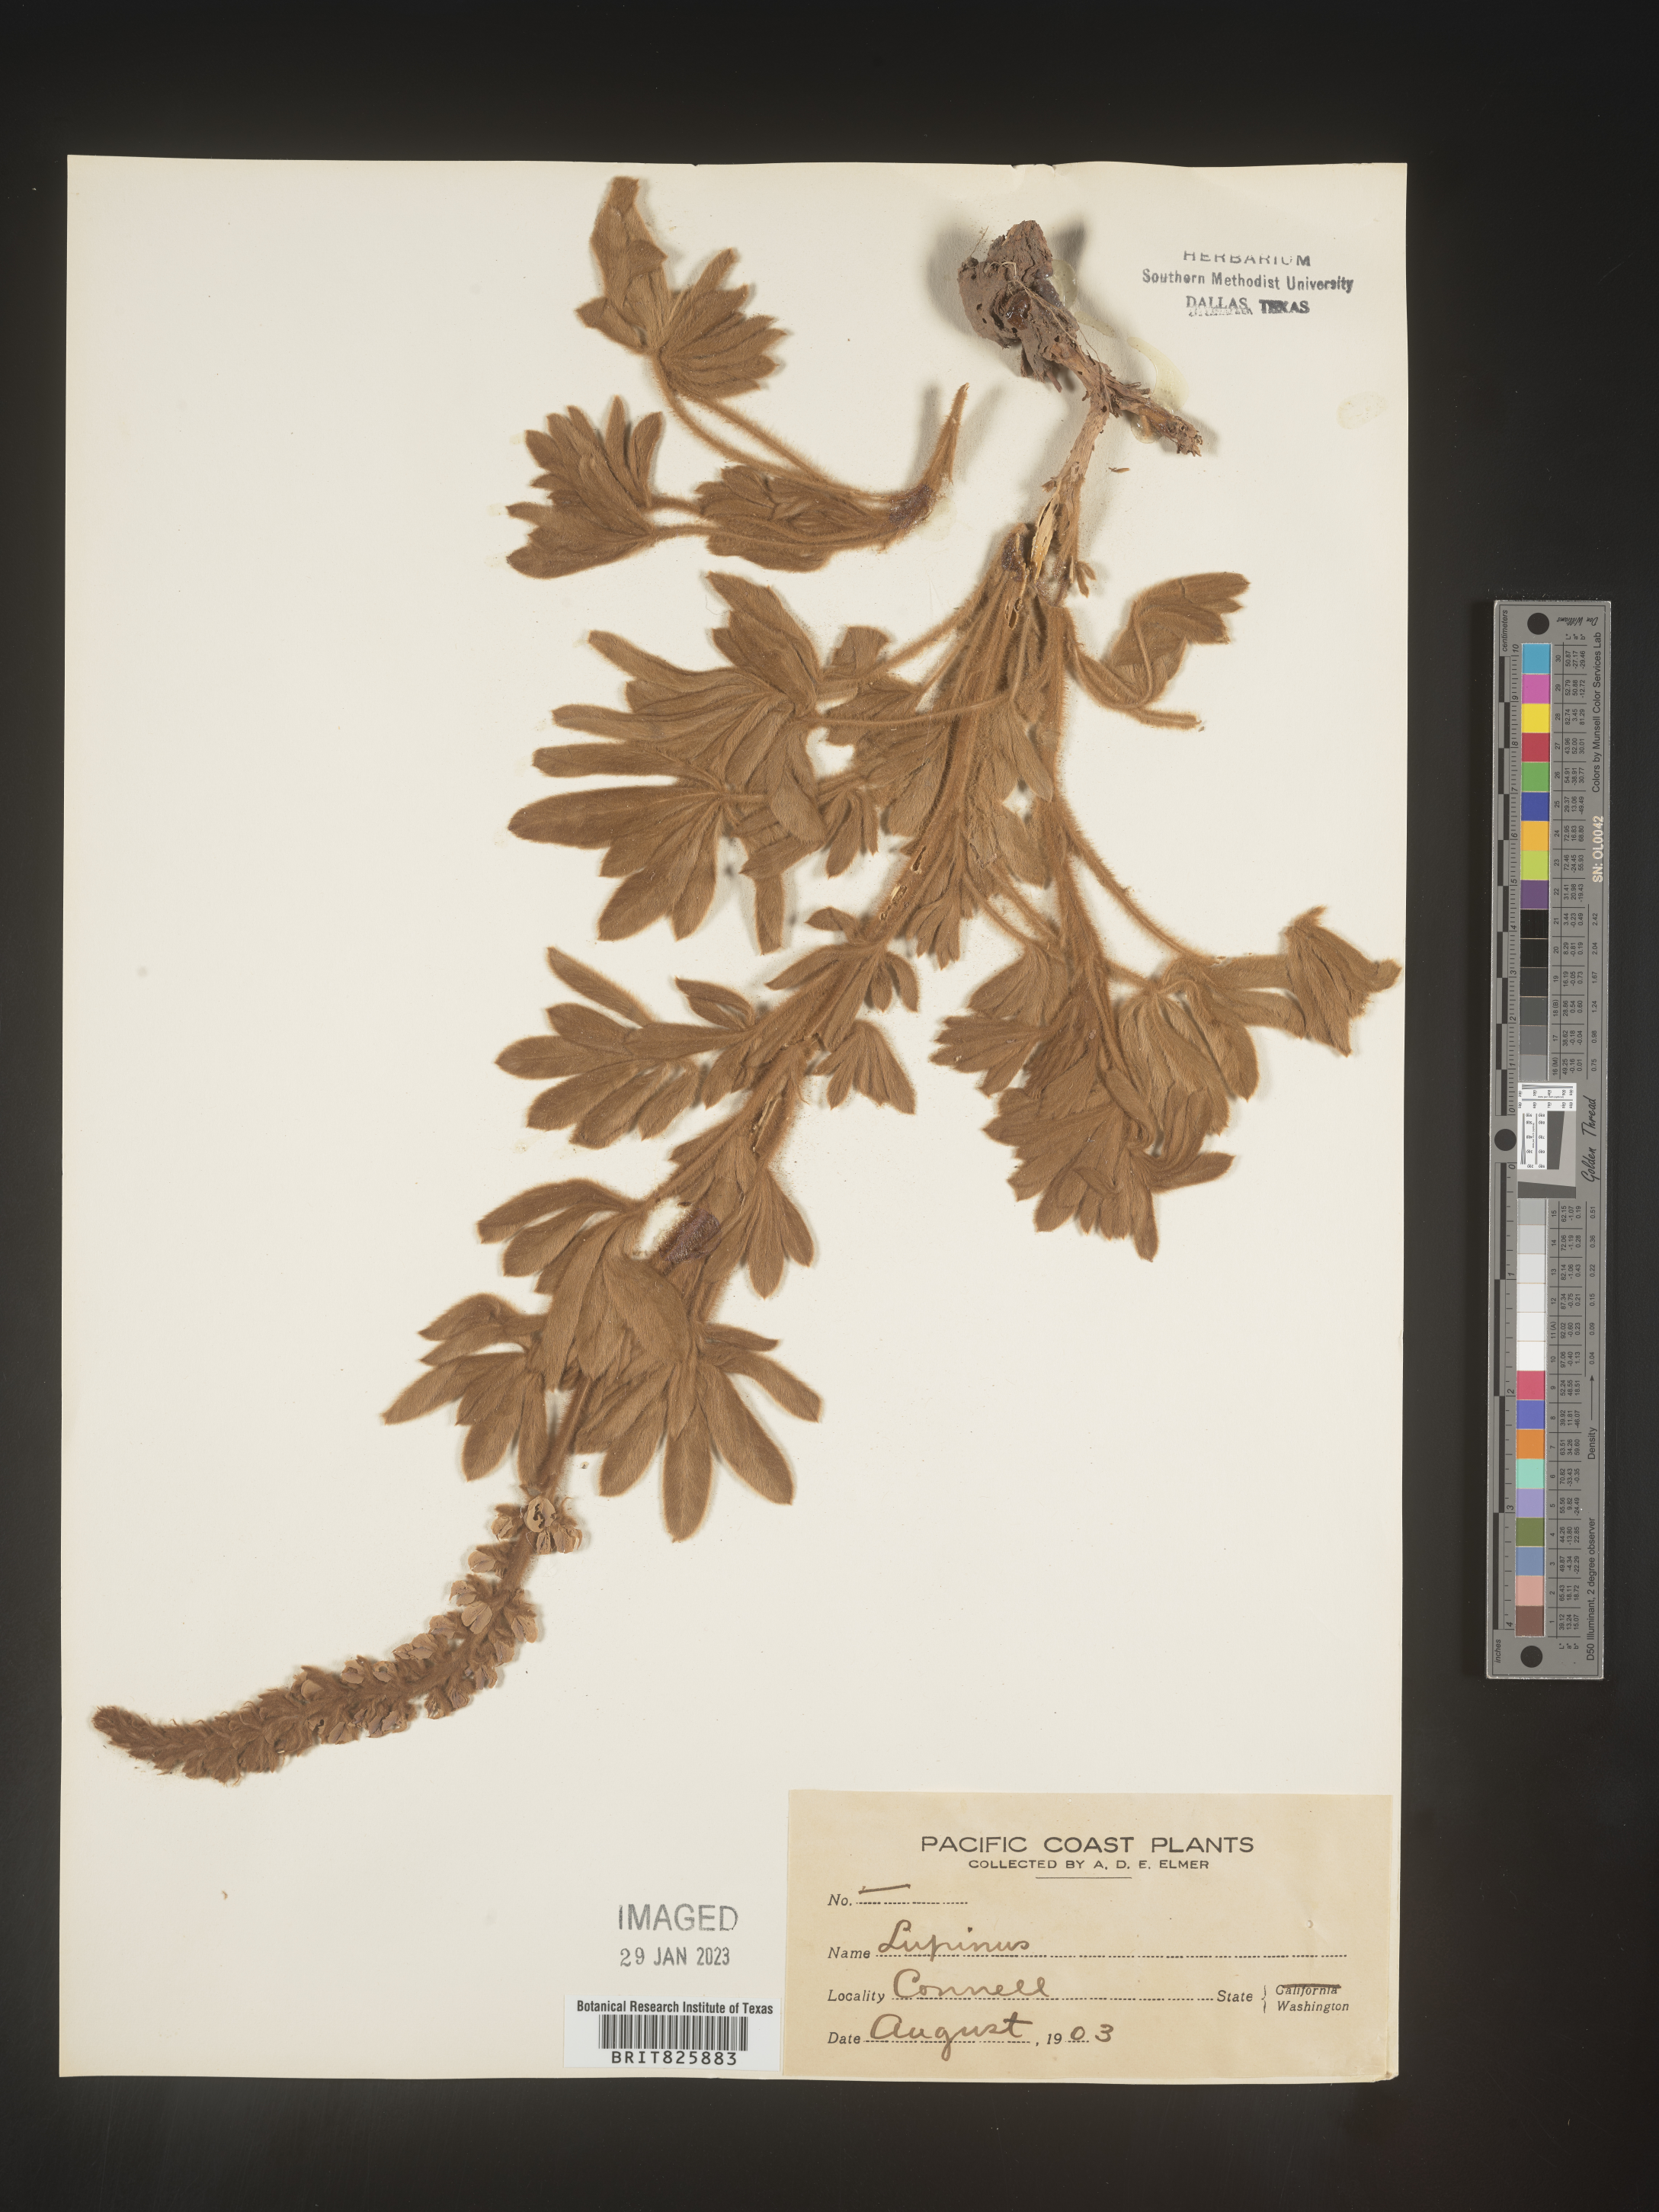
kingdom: Plantae
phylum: Tracheophyta
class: Magnoliopsida
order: Fabales
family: Fabaceae
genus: Lupinus
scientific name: Lupinus
